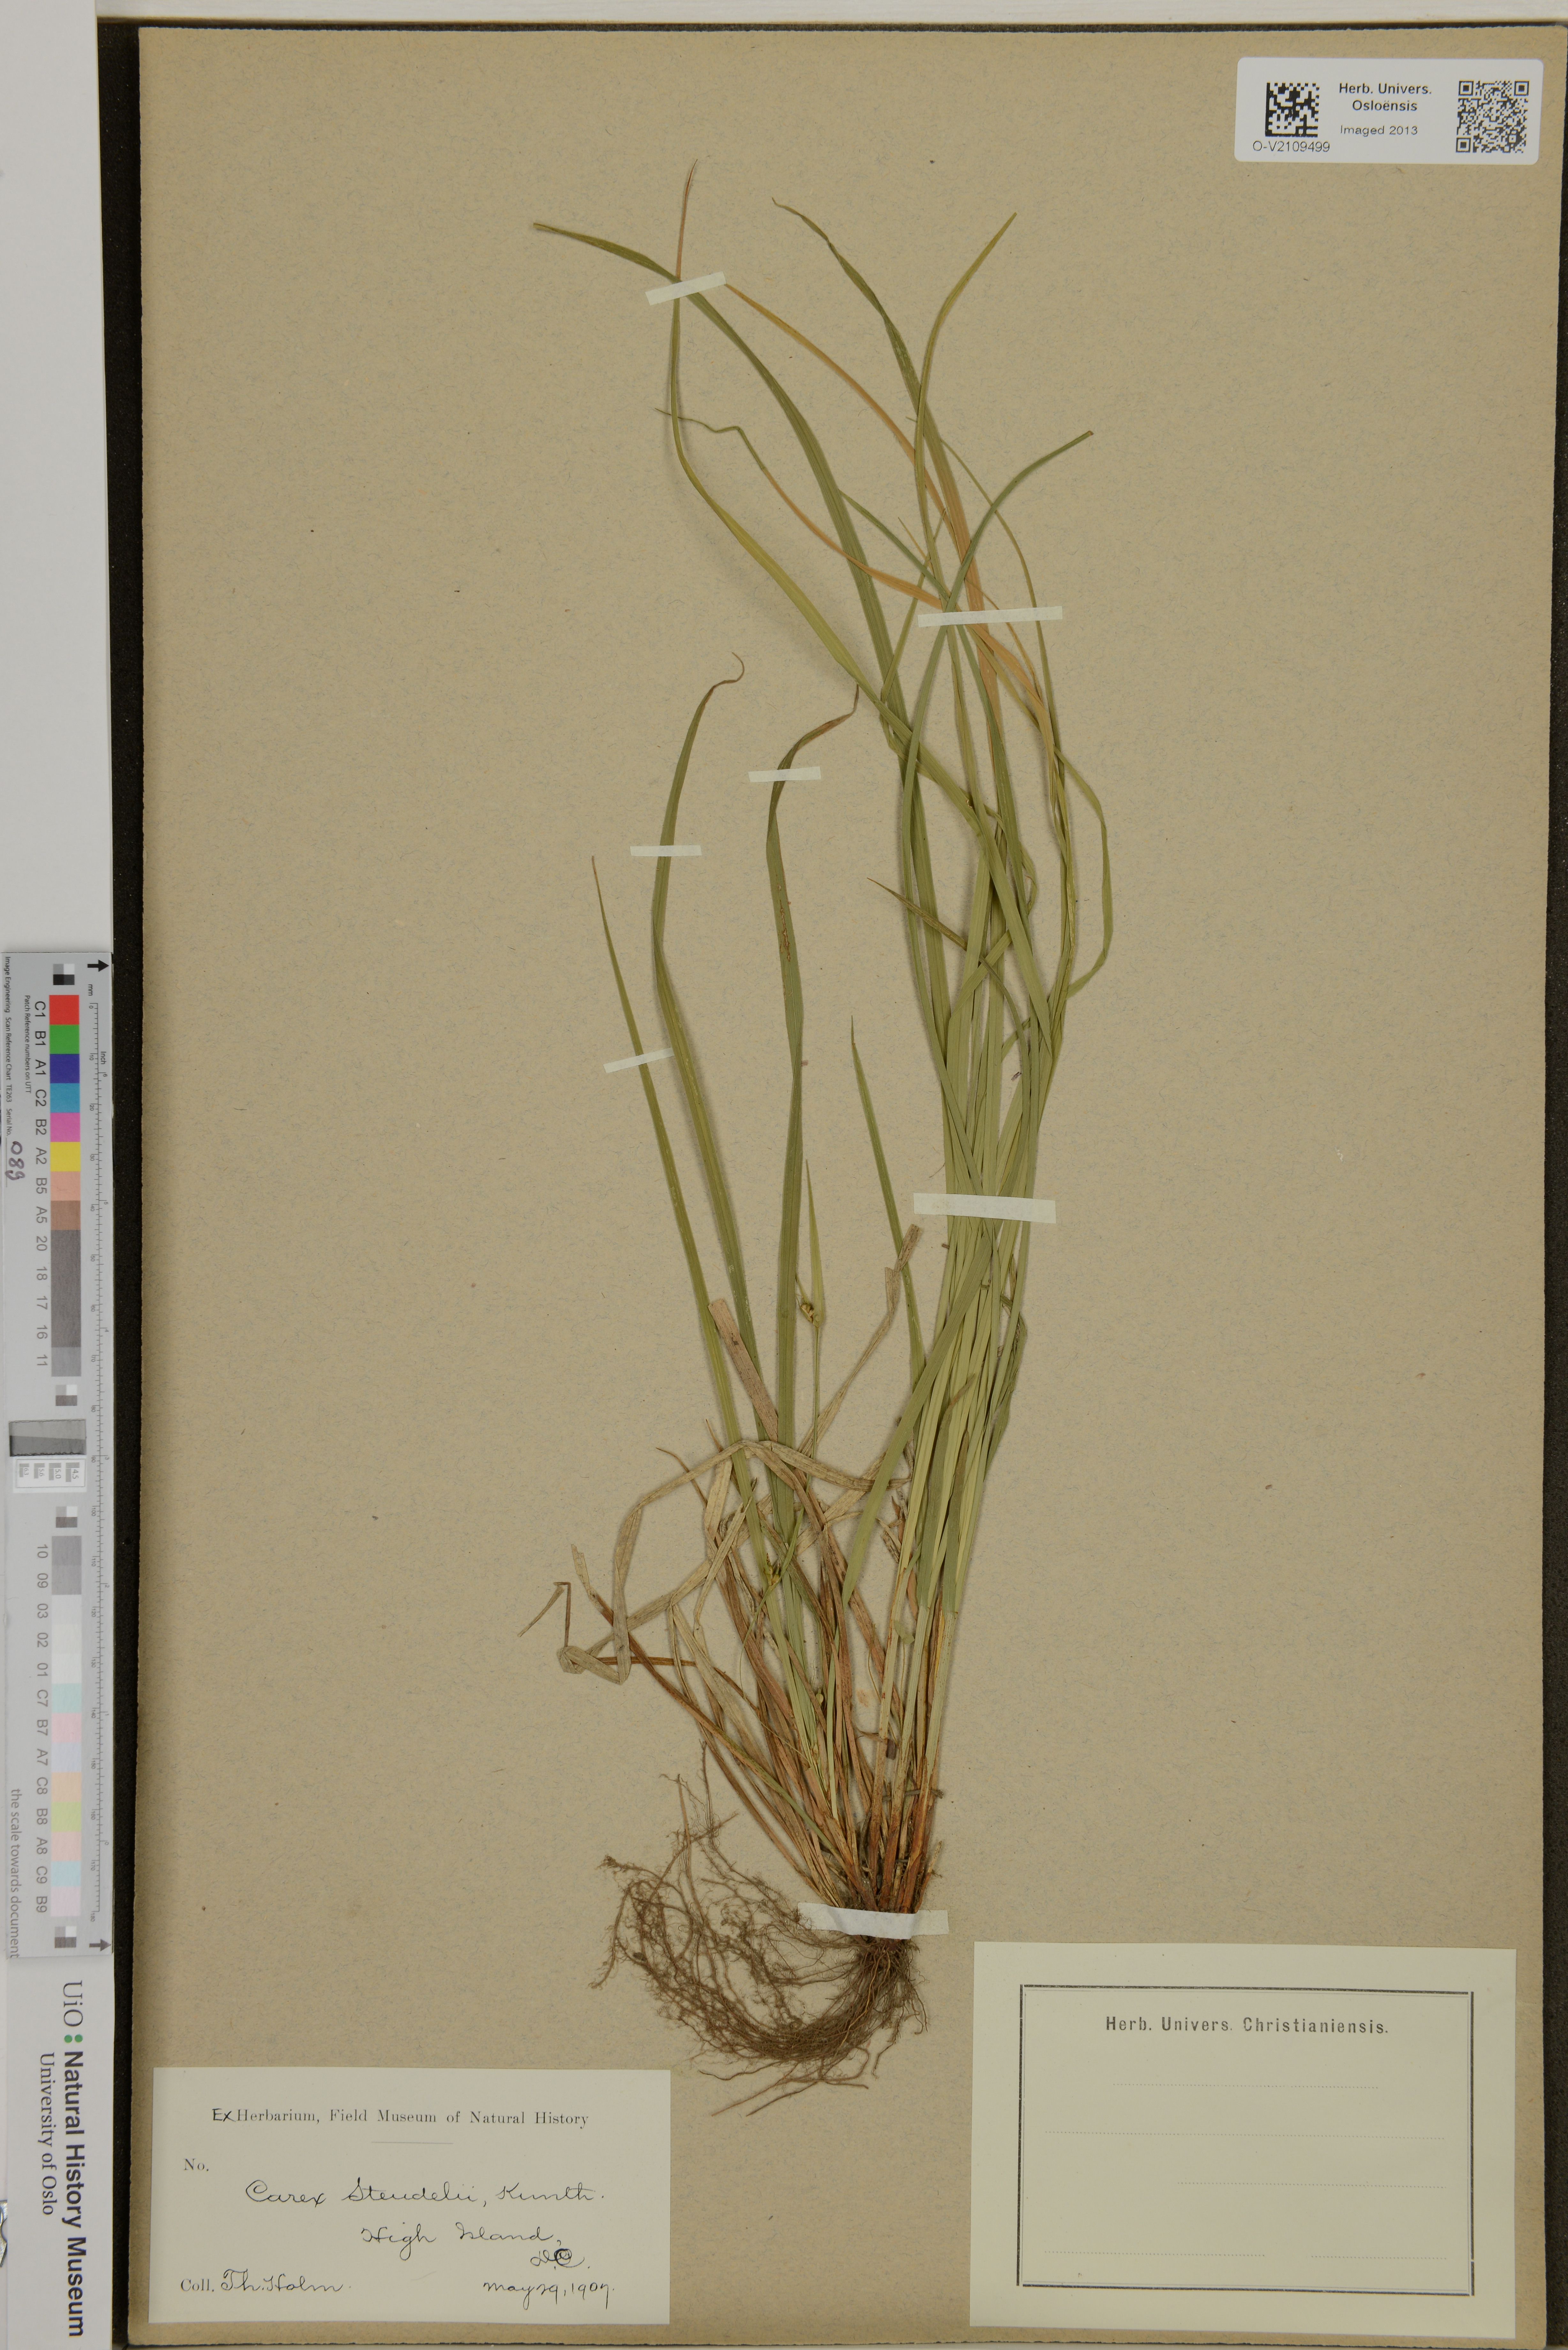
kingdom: Plantae
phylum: Tracheophyta
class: Liliopsida
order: Poales
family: Cyperaceae
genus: Carex
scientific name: Carex jamesii
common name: Grass sedge
